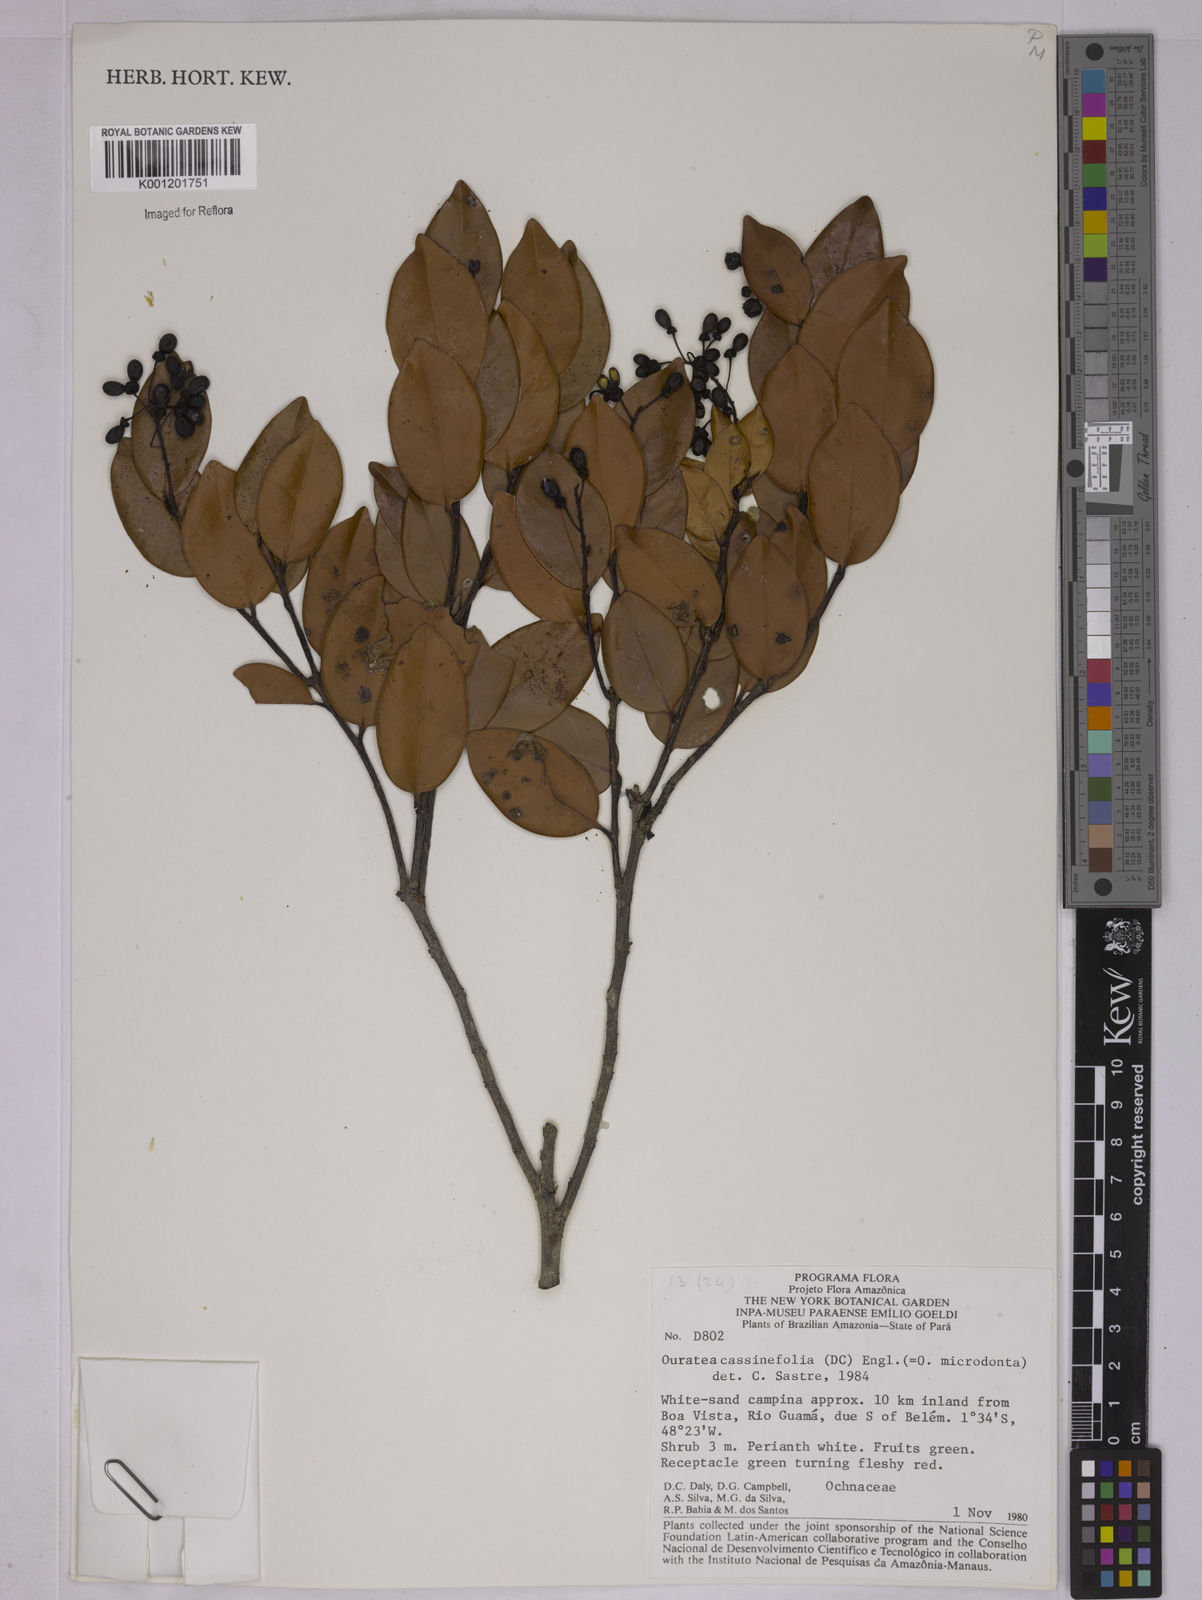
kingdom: Plantae
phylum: Tracheophyta
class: Magnoliopsida
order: Malpighiales
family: Ochnaceae
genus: Ouratea
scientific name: Ouratea
